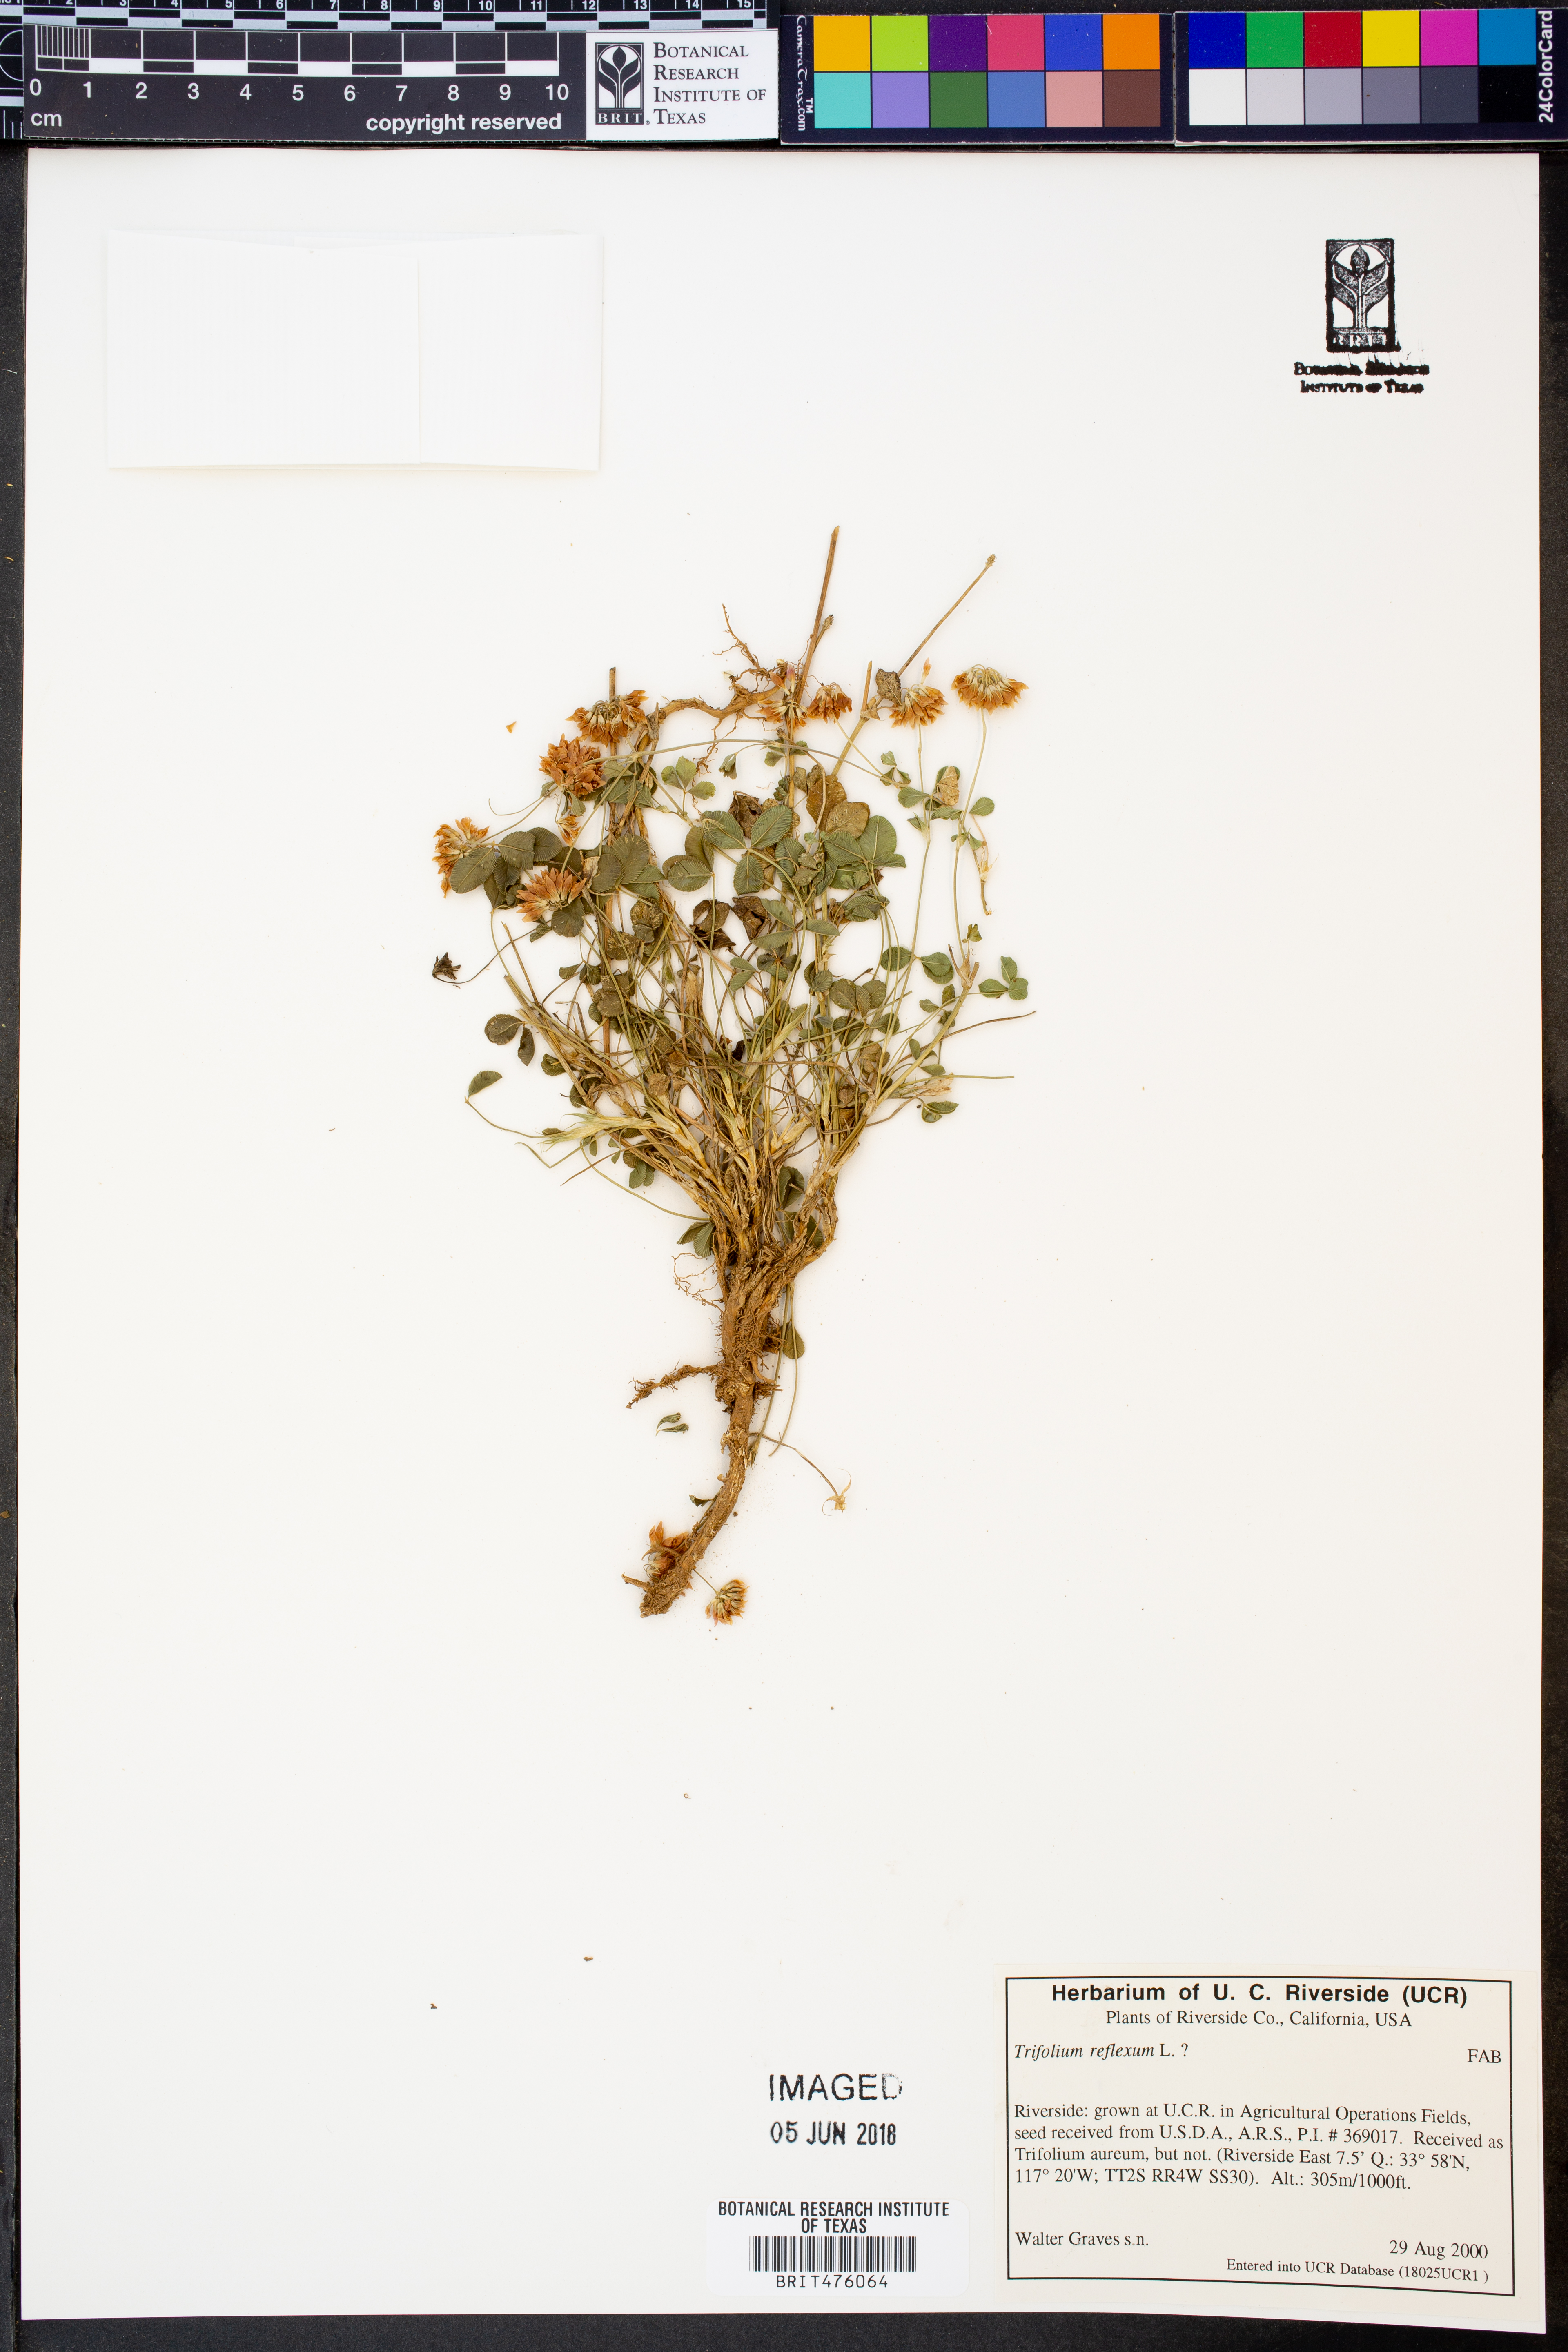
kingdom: Plantae
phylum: Tracheophyta
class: Magnoliopsida
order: Fabales
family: Fabaceae
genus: Trifolium
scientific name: Trifolium reflexum
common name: Buffalo clover
